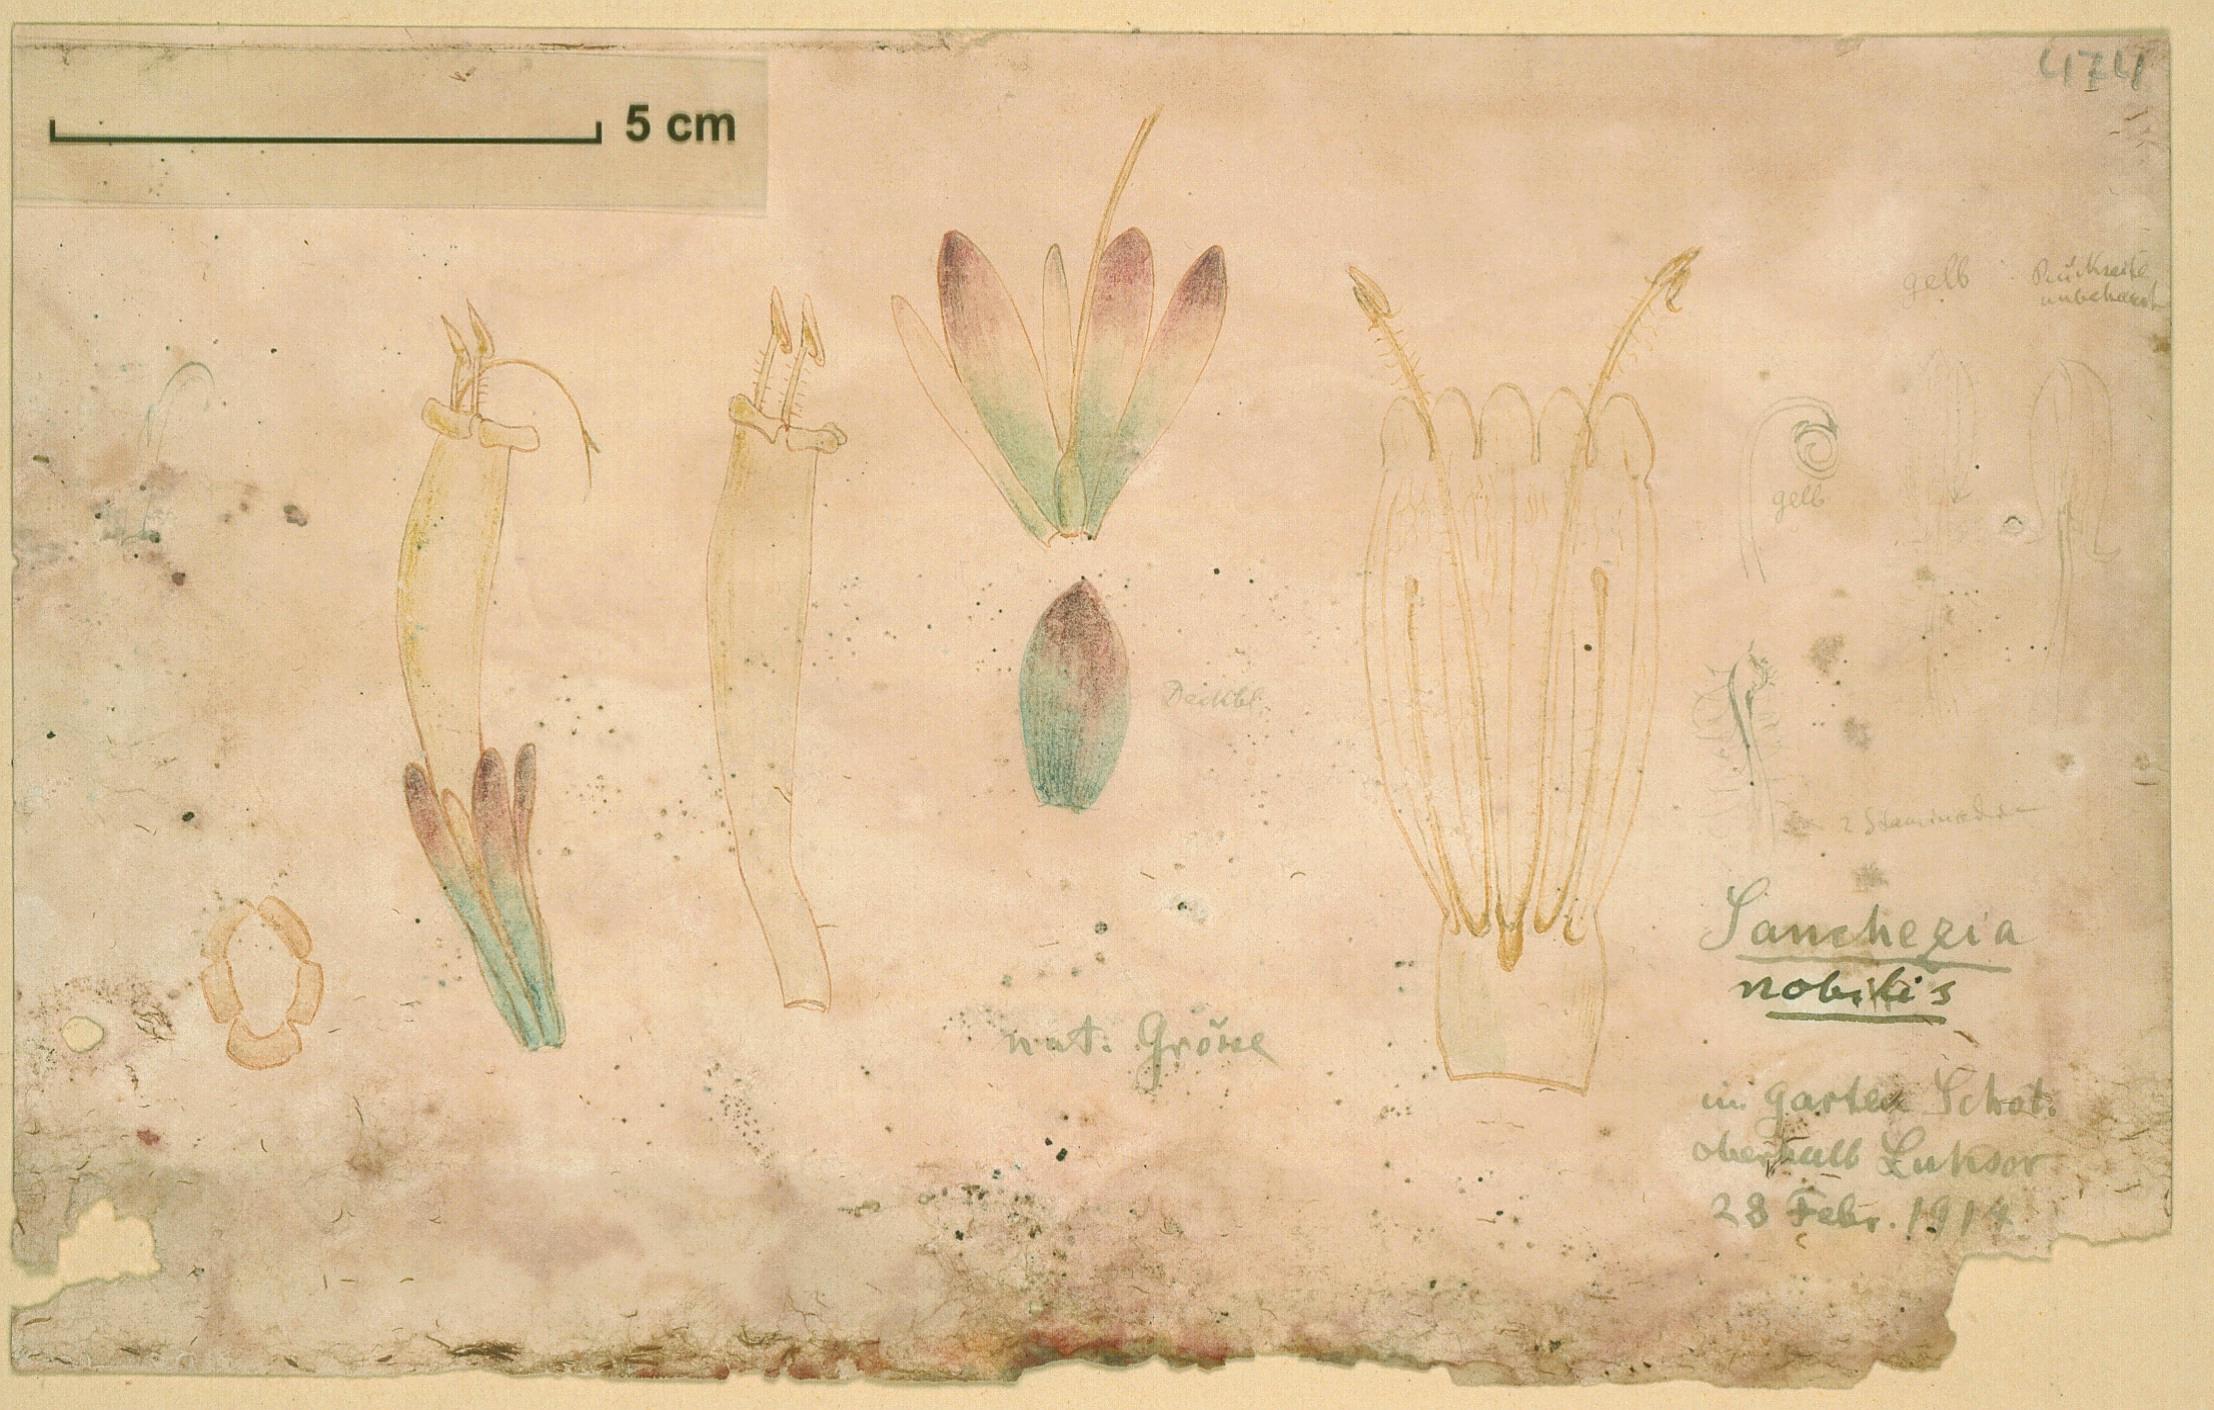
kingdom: Plantae
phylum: Tracheophyta
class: Magnoliopsida
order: Lamiales
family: Acanthaceae
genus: Sanchezia
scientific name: Sanchezia oblonga
